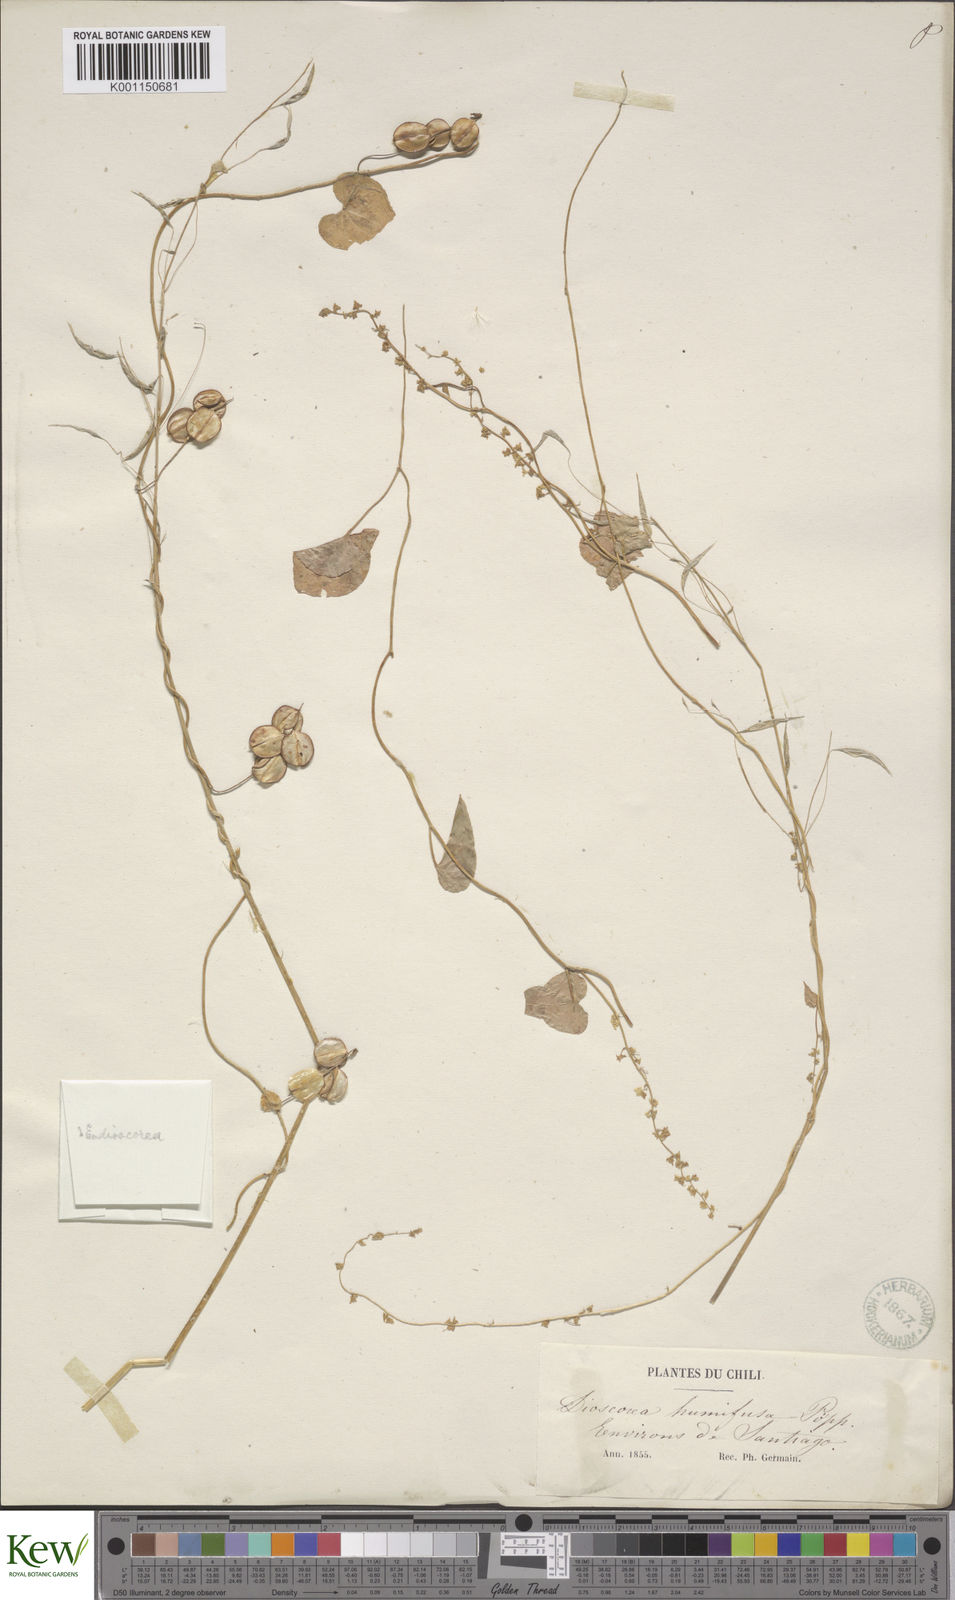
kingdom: Plantae
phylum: Tracheophyta
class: Liliopsida
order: Dioscoreales
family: Dioscoreaceae
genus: Dioscorea
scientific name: Dioscorea besseriana
